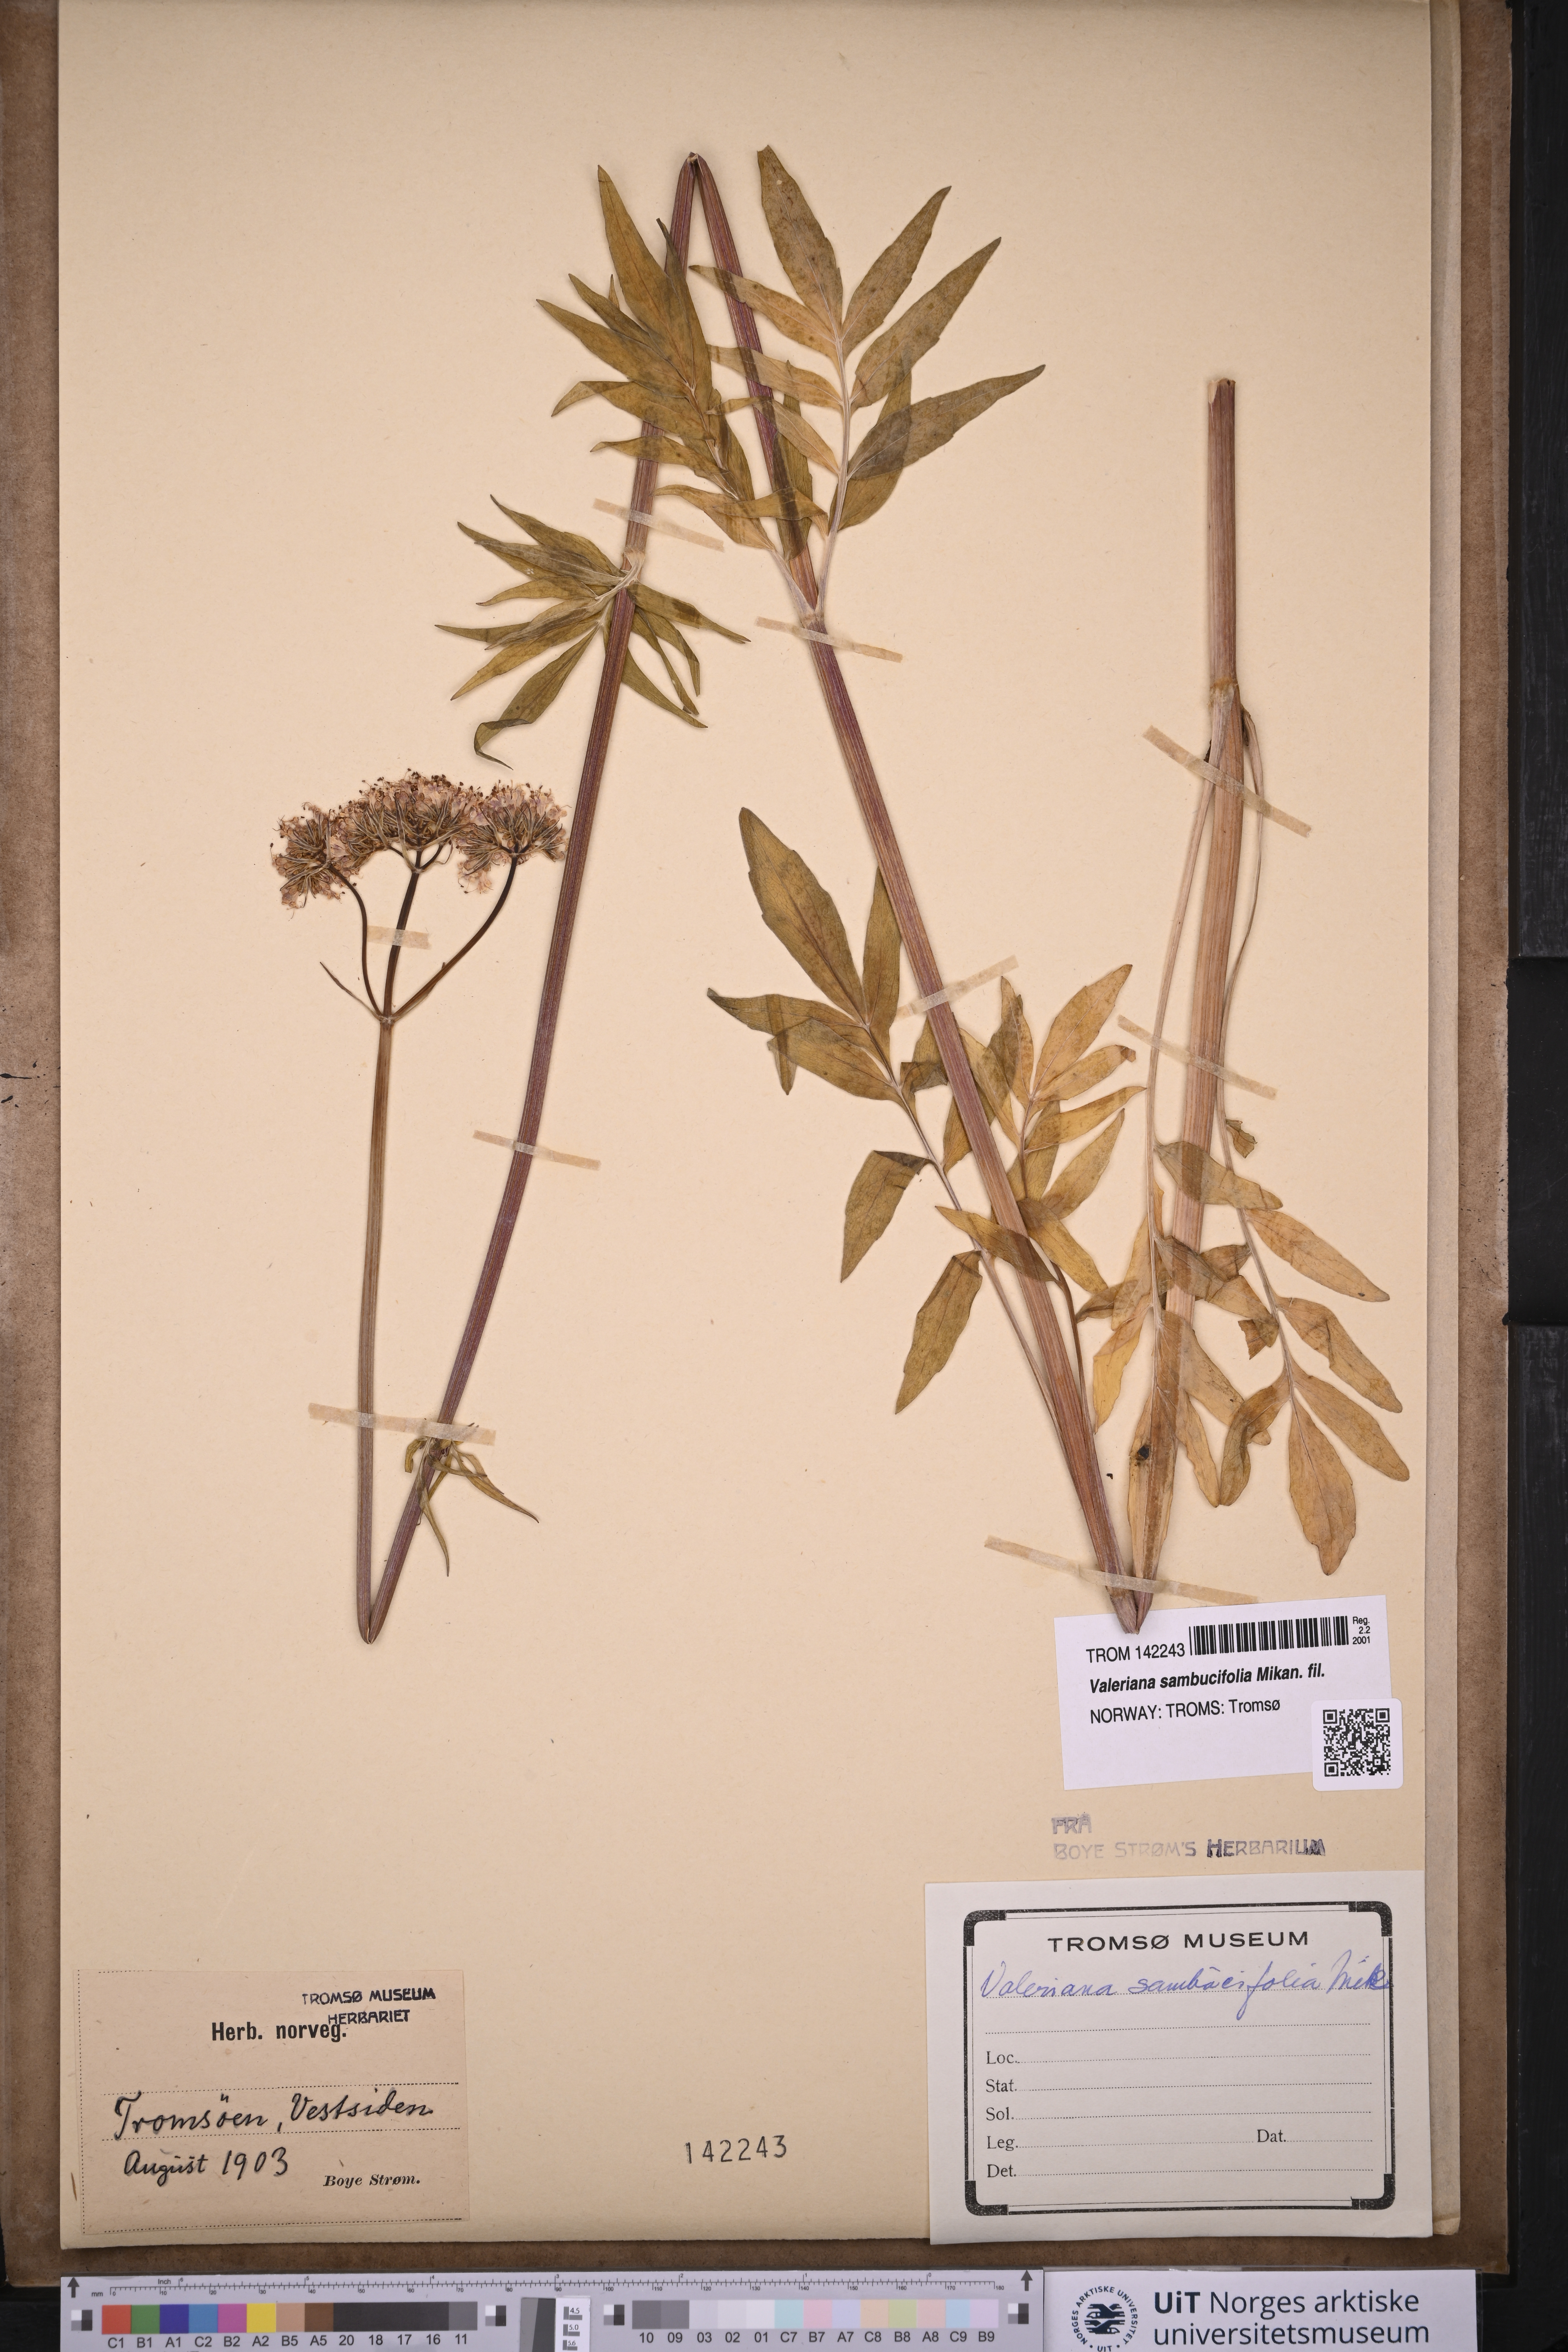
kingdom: Plantae
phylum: Tracheophyta
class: Magnoliopsida
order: Dipsacales
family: Caprifoliaceae
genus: Valeriana
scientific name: Valeriana excelsa
